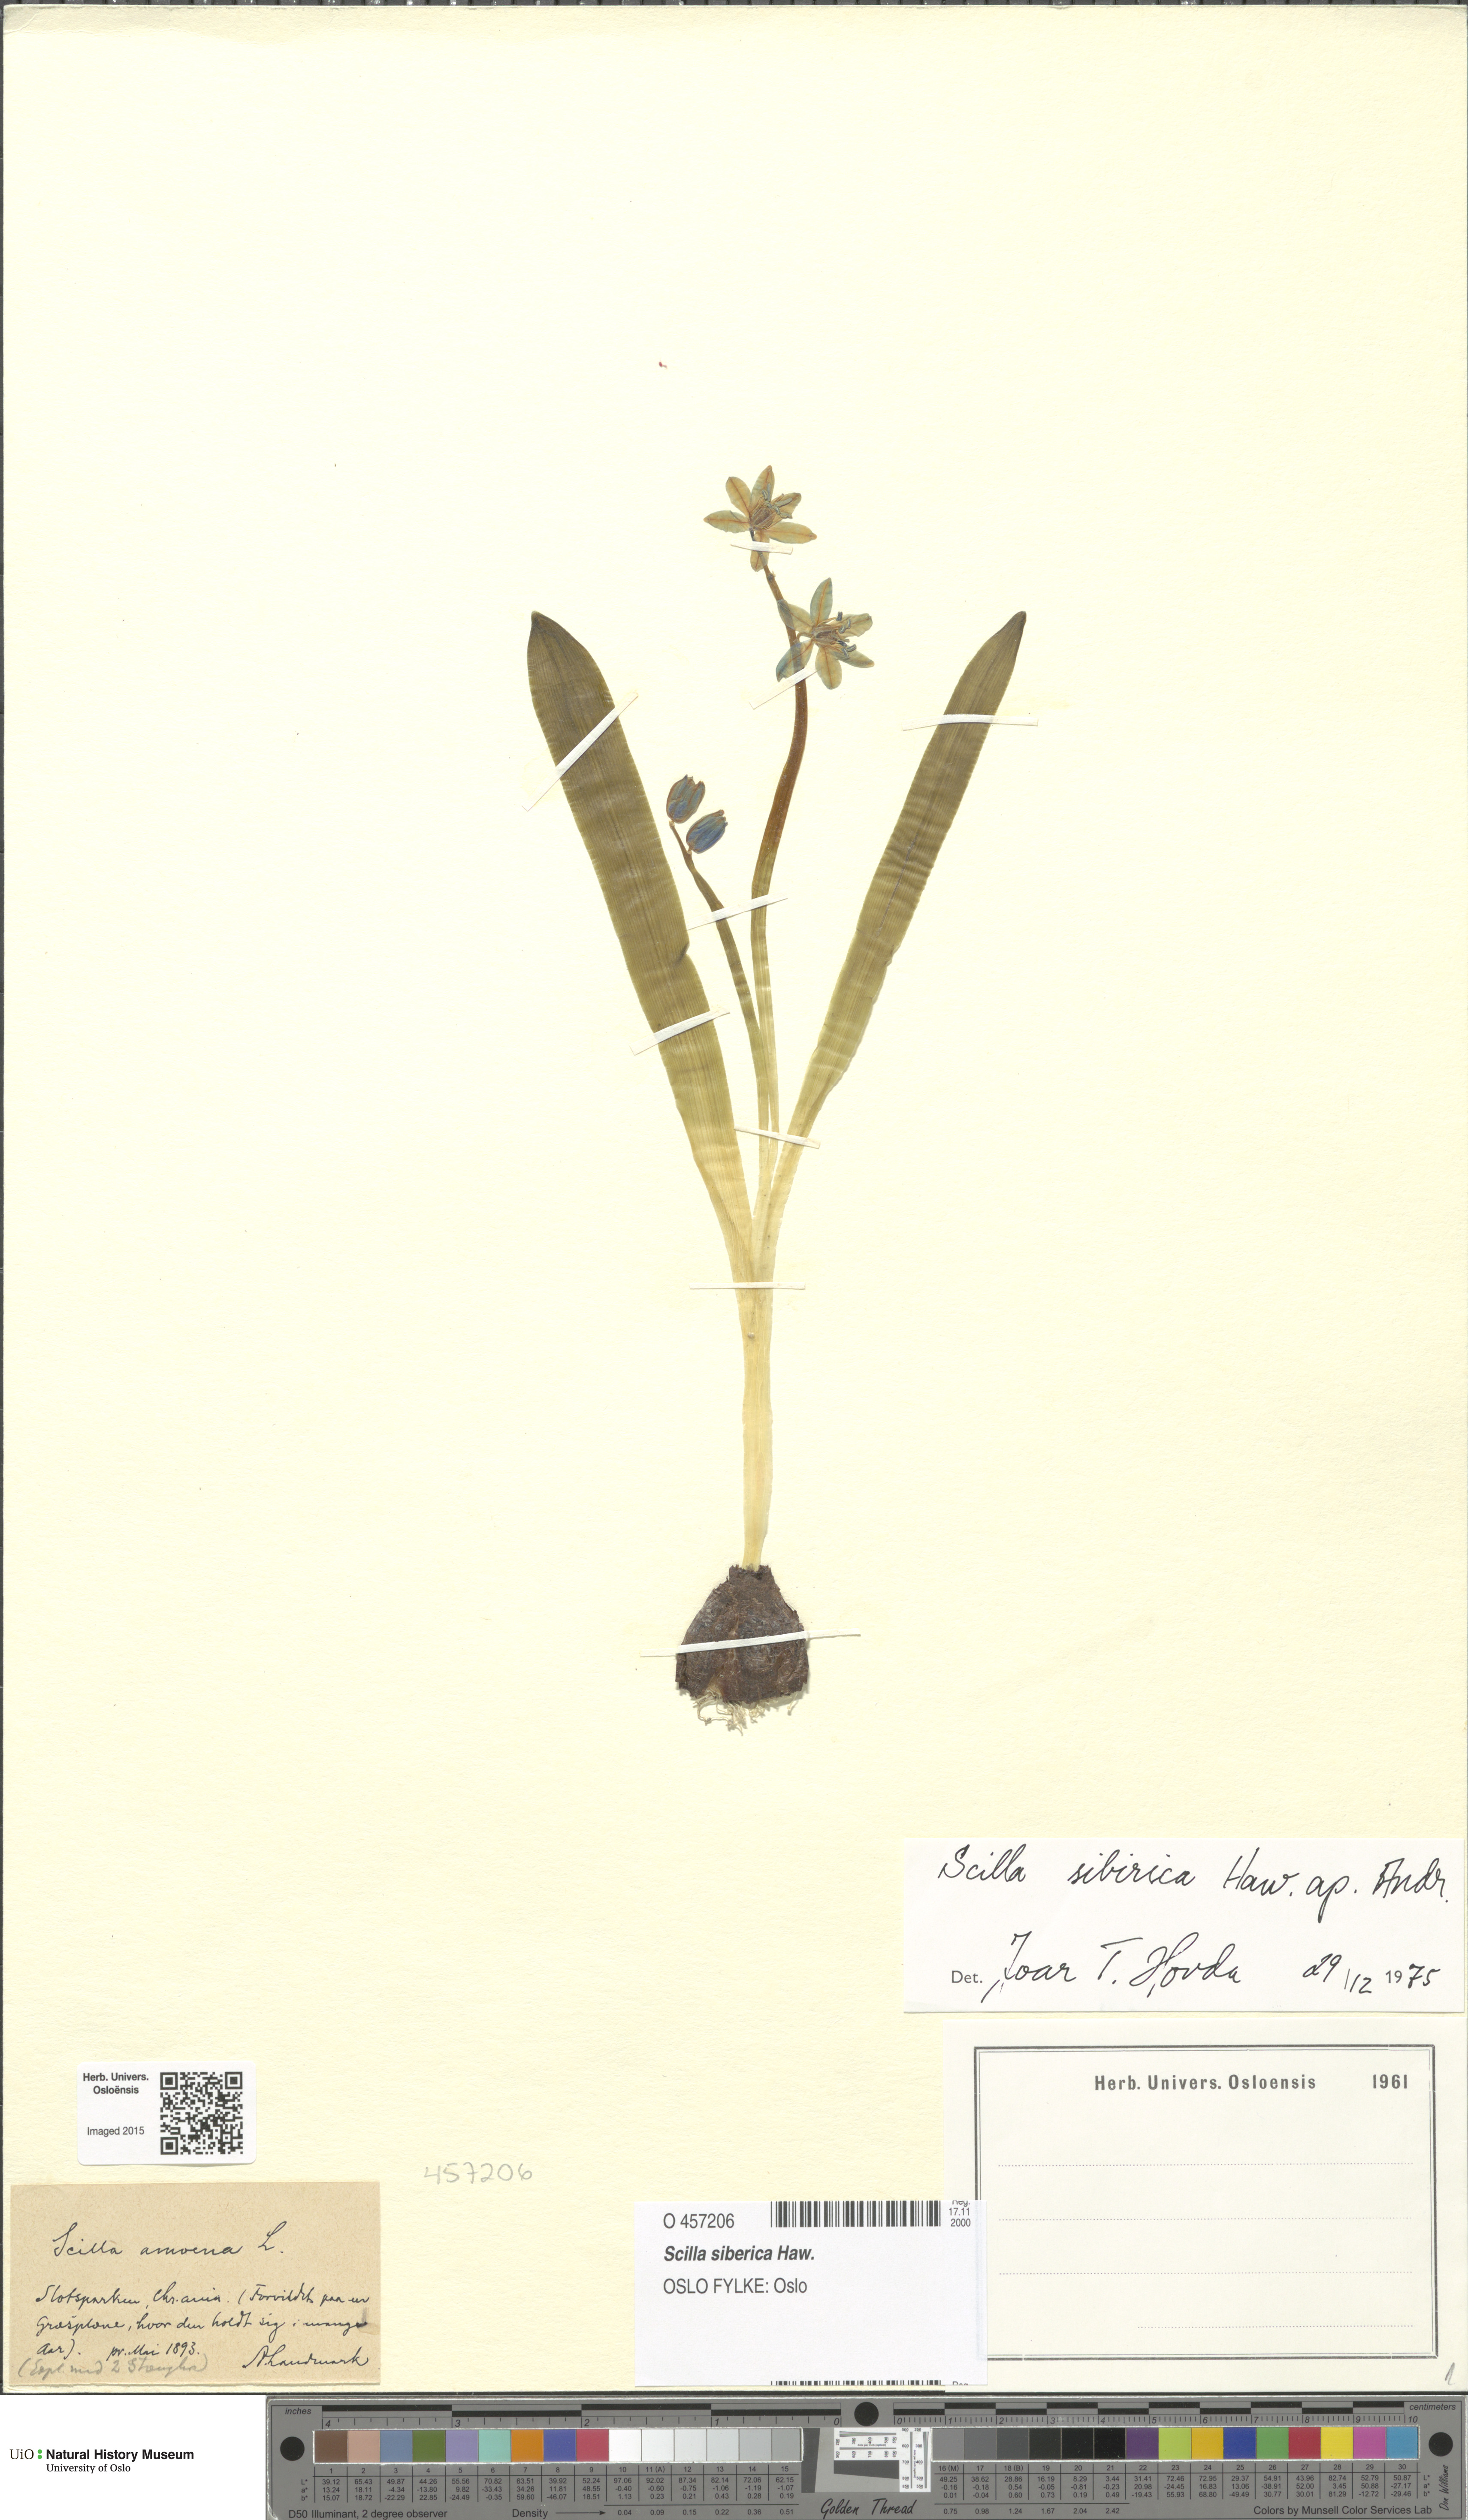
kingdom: Plantae
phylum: Tracheophyta
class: Liliopsida
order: Asparagales
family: Asparagaceae
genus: Scilla
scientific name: Scilla siberica
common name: Siberian squill
